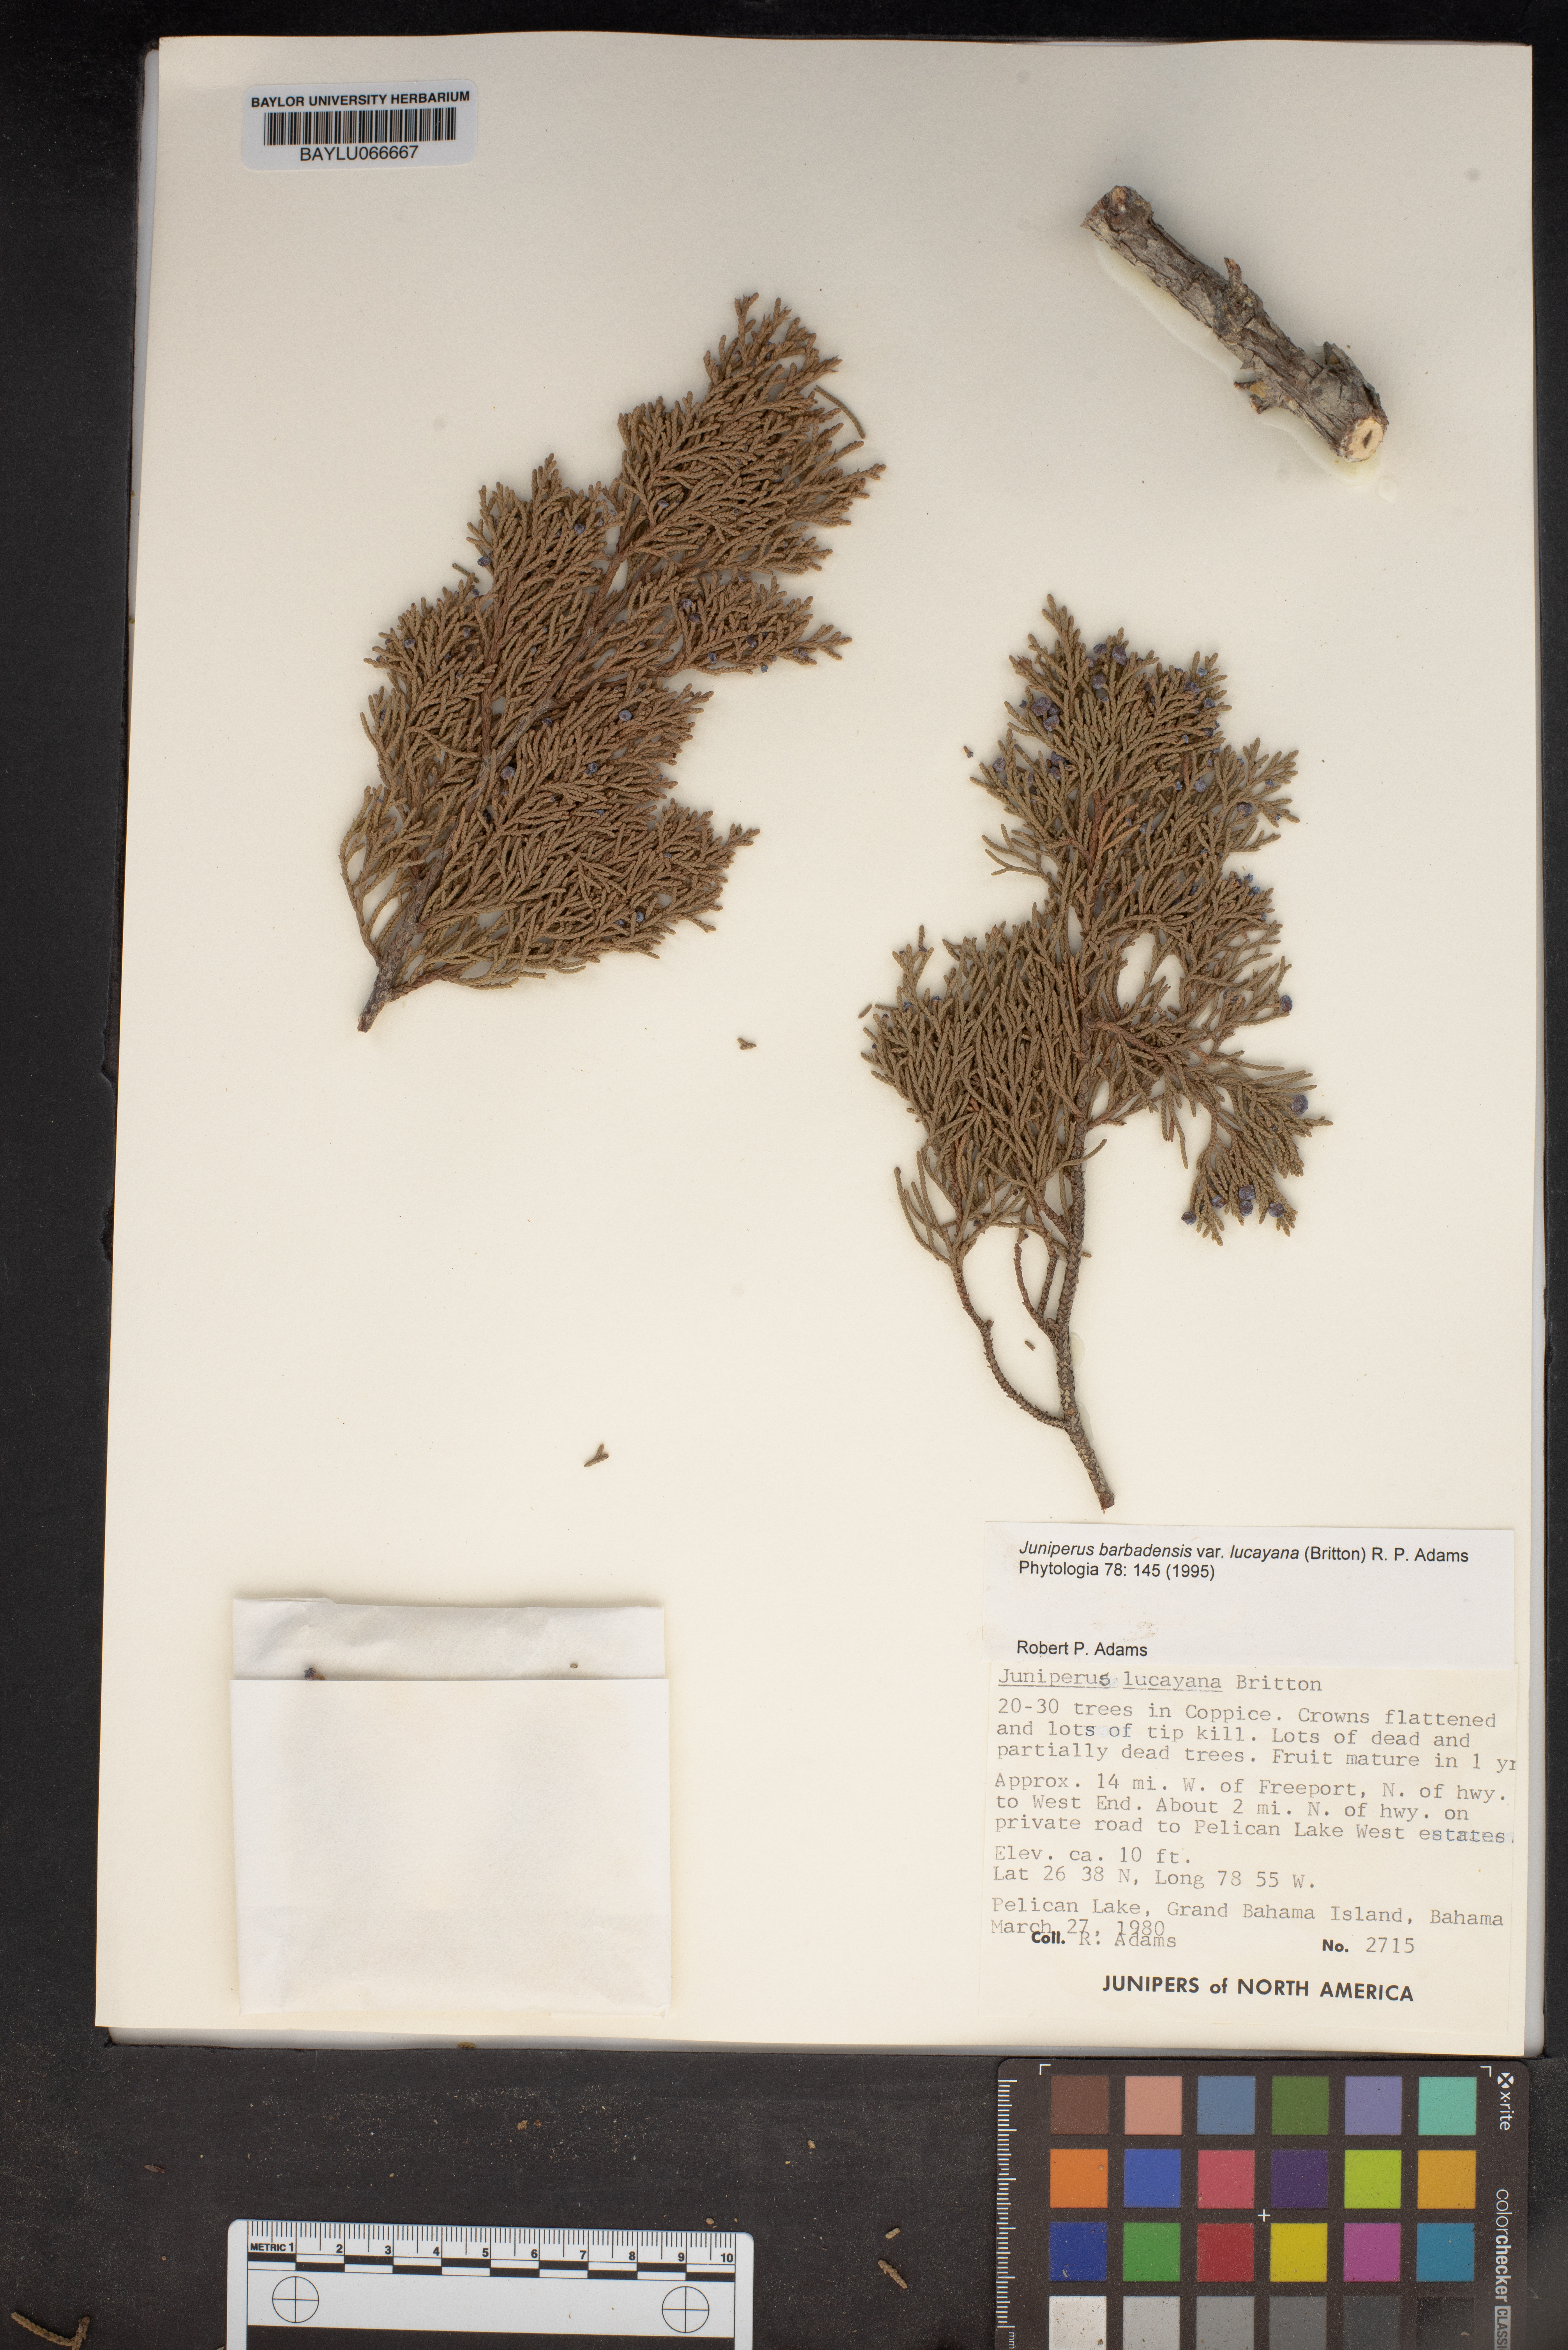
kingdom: Plantae
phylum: Tracheophyta
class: Pinopsida
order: Pinales
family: Cupressaceae
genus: Juniperus
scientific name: Juniperus barbadensis
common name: West indies juniper
